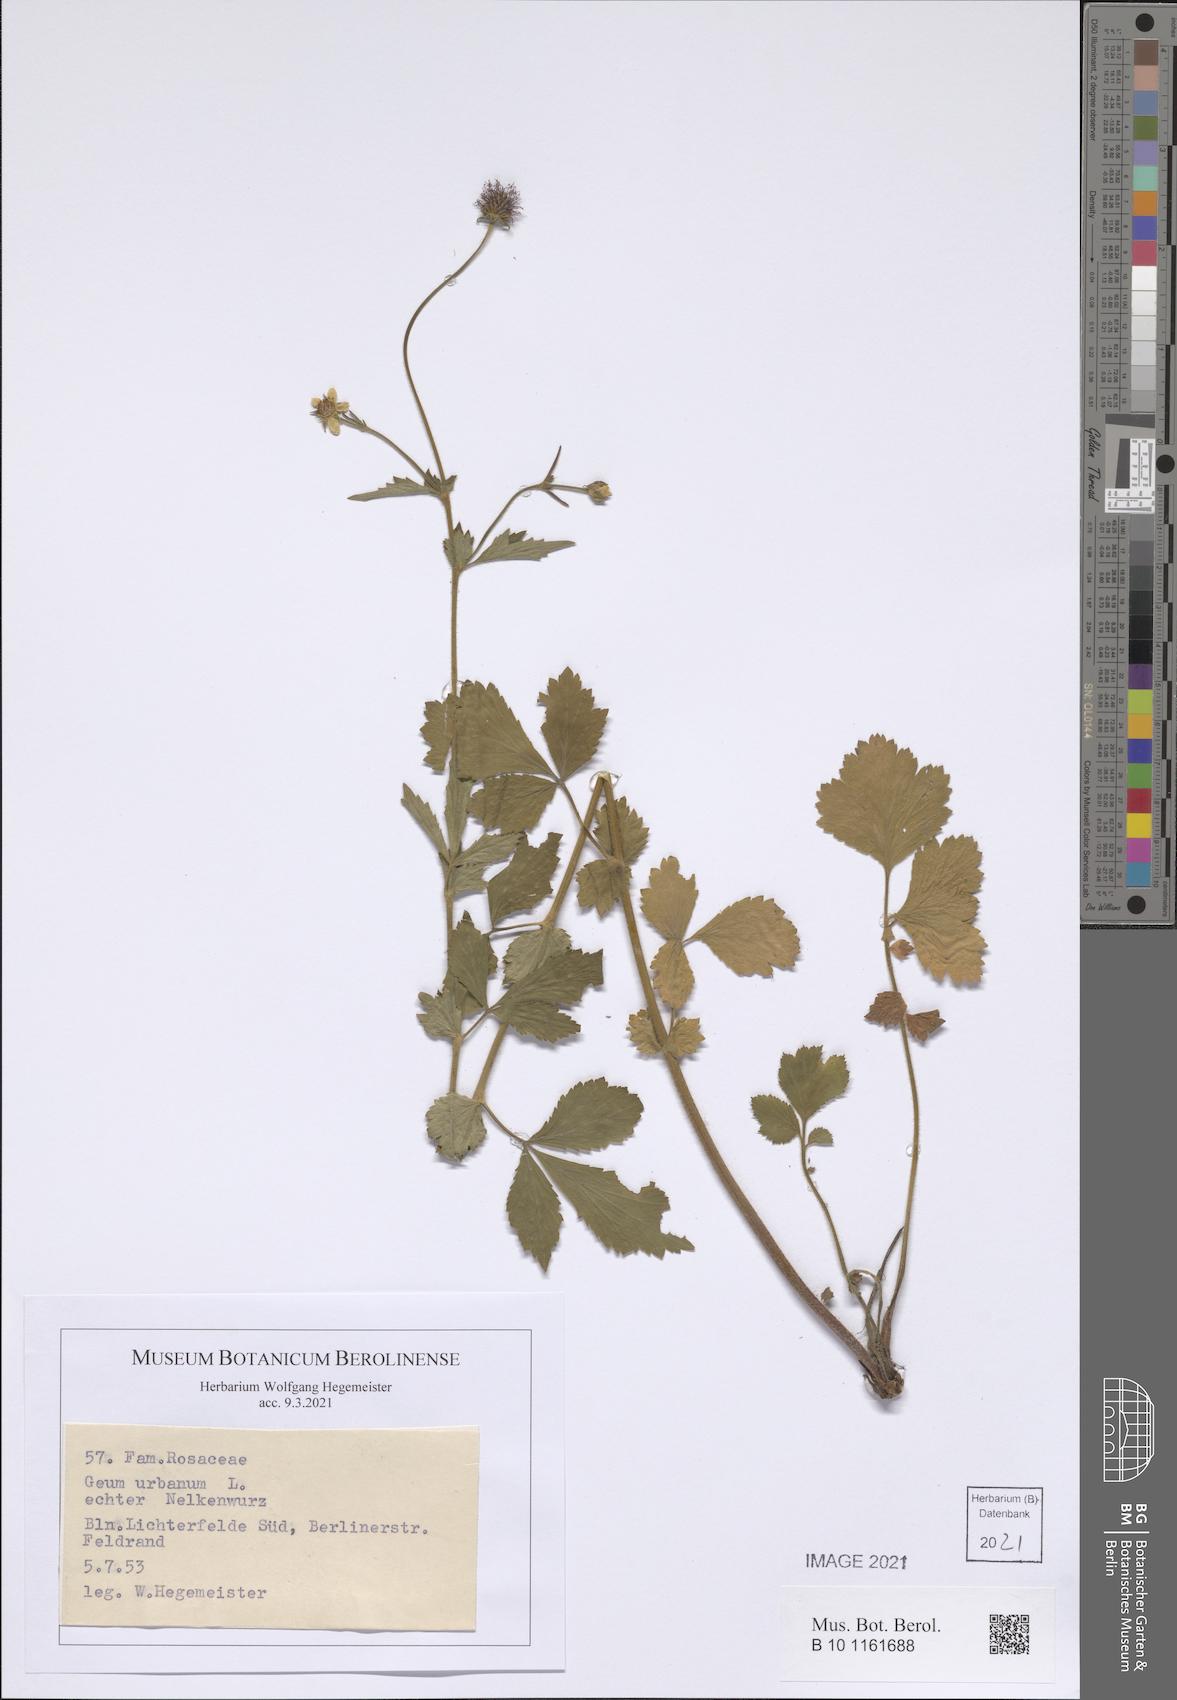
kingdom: Plantae
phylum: Tracheophyta
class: Magnoliopsida
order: Rosales
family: Rosaceae
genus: Geum
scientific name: Geum urbanum
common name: Wood avens
